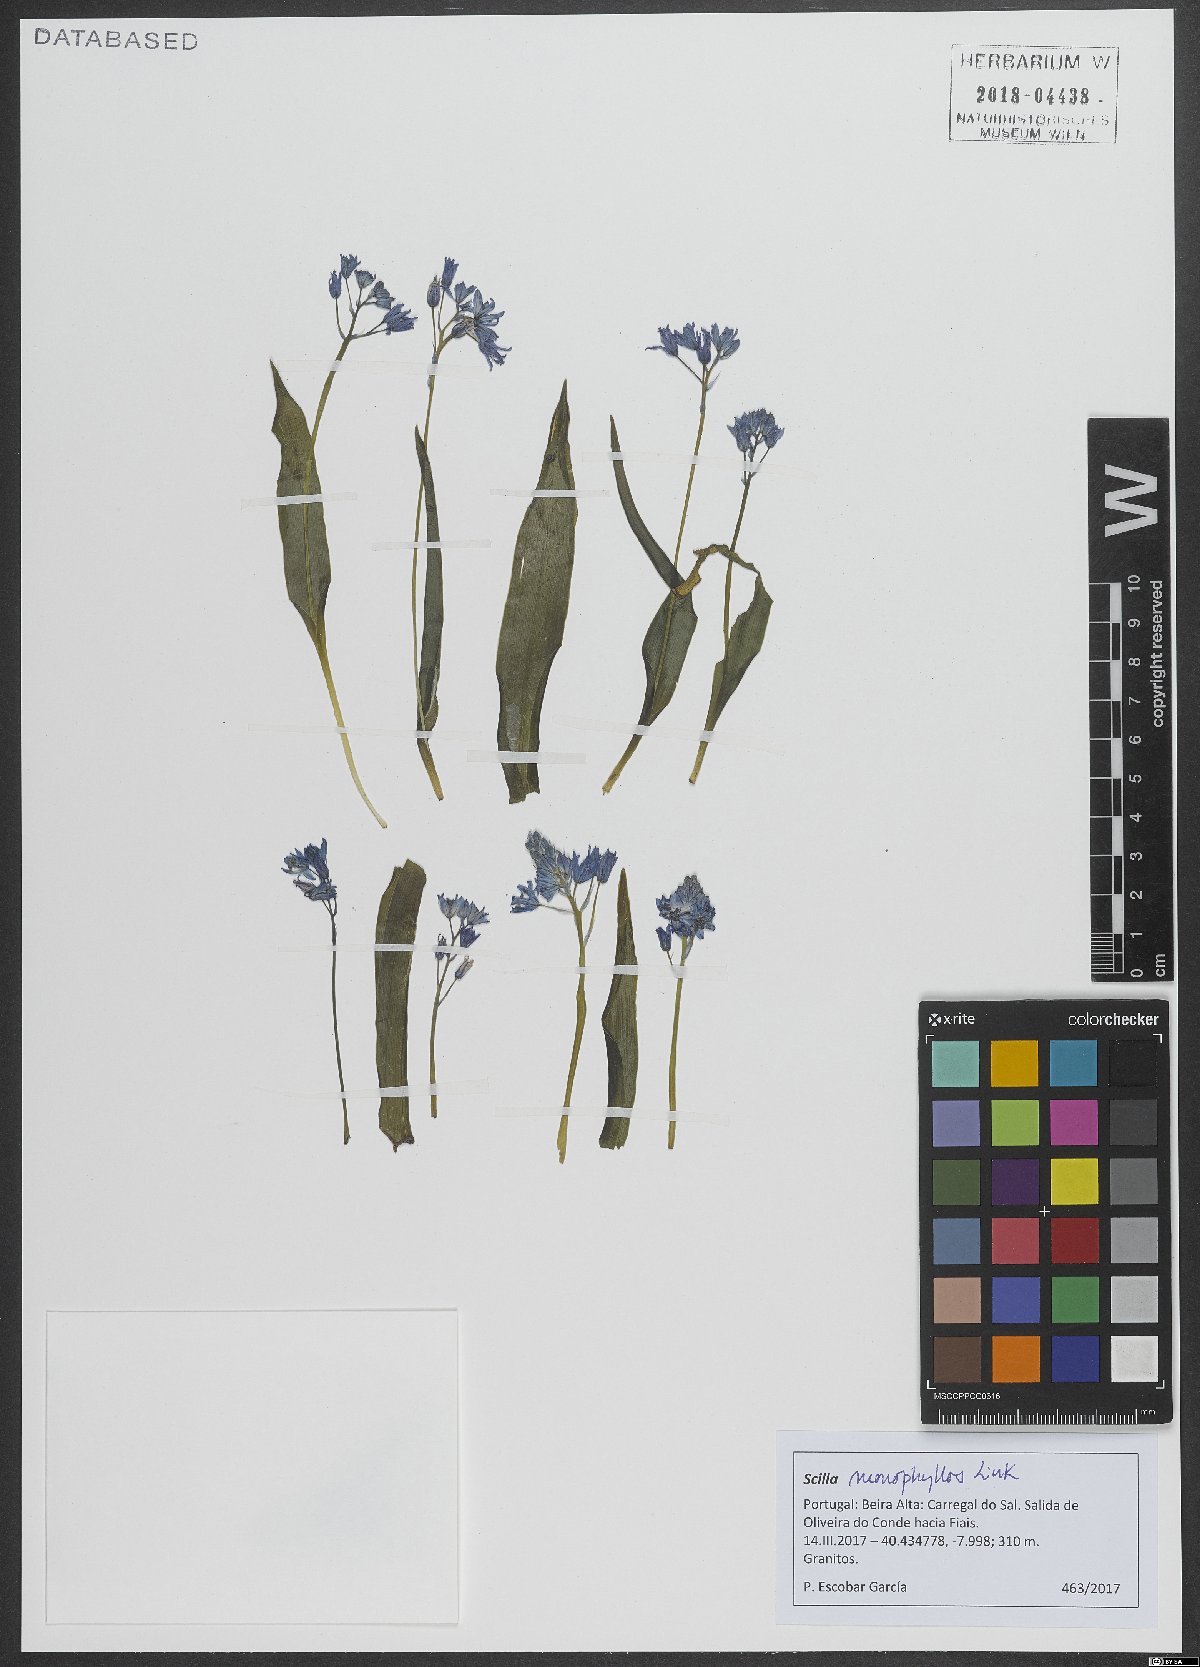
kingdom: Plantae
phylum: Tracheophyta
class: Liliopsida
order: Asparagales
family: Asparagaceae
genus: Scilla
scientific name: Scilla monophyllos
